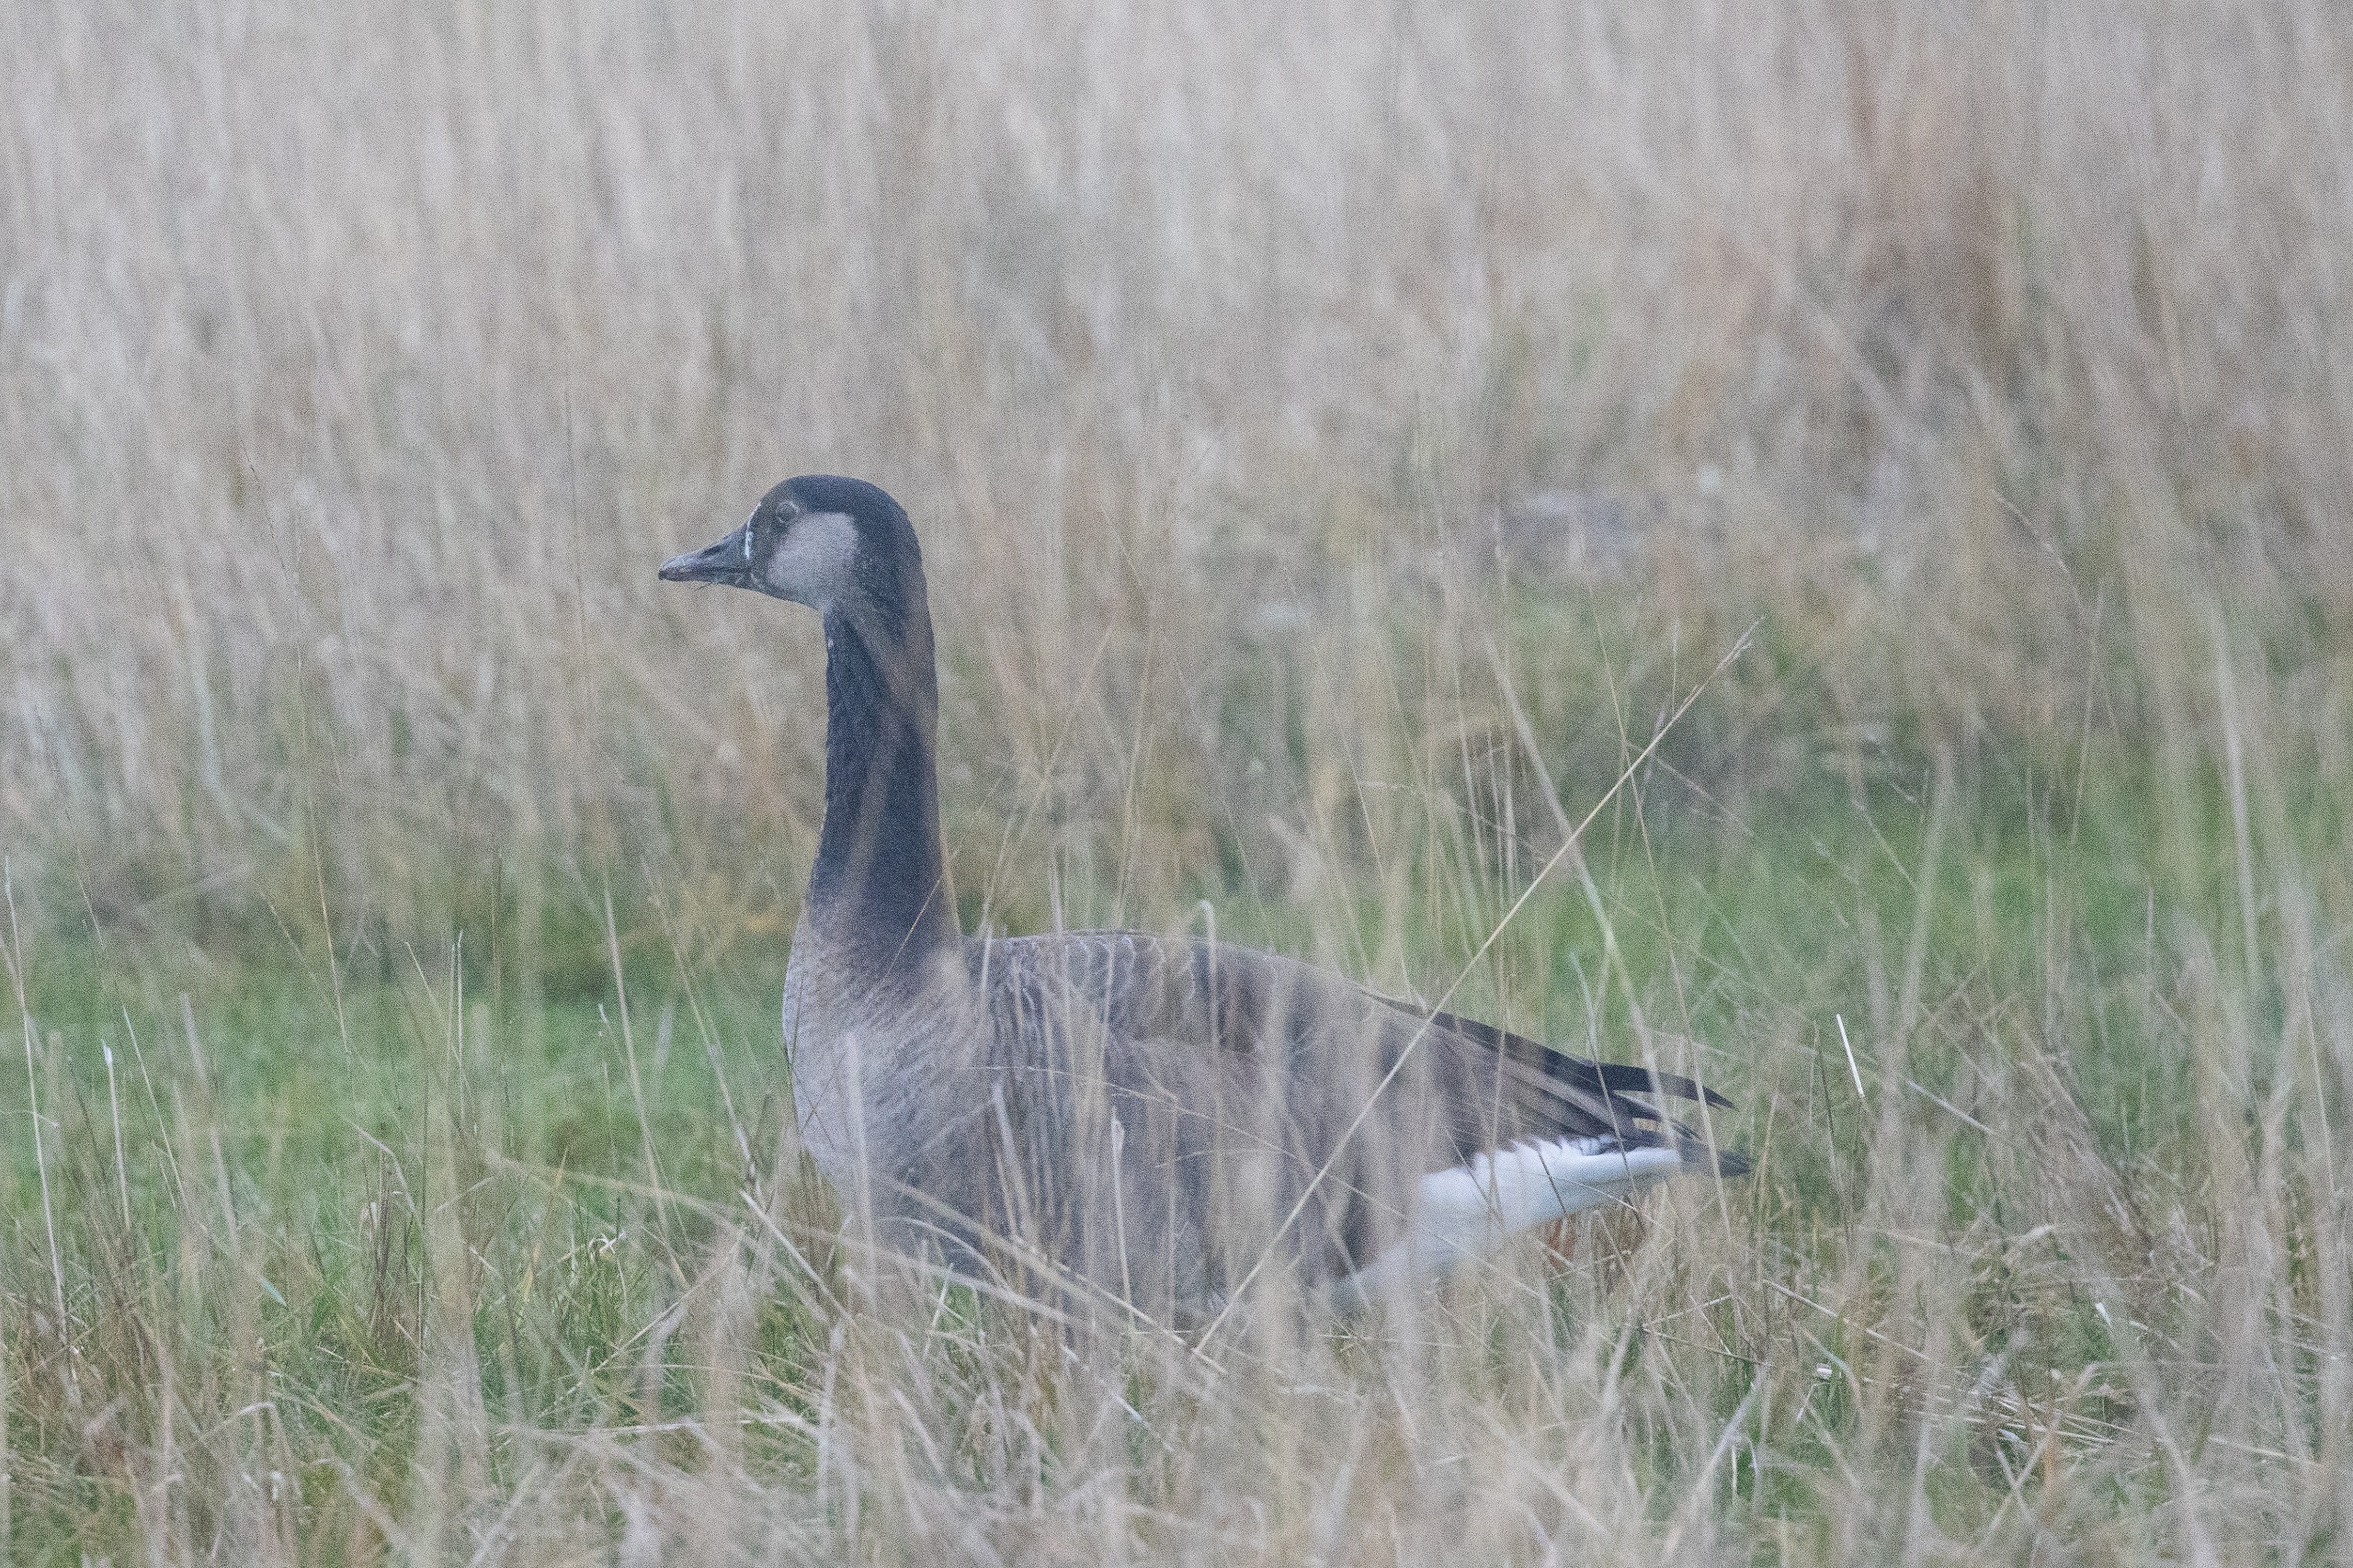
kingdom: Animalia
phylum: Chordata
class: Aves
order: Anseriformes
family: Anatidae
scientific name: Anatidae
